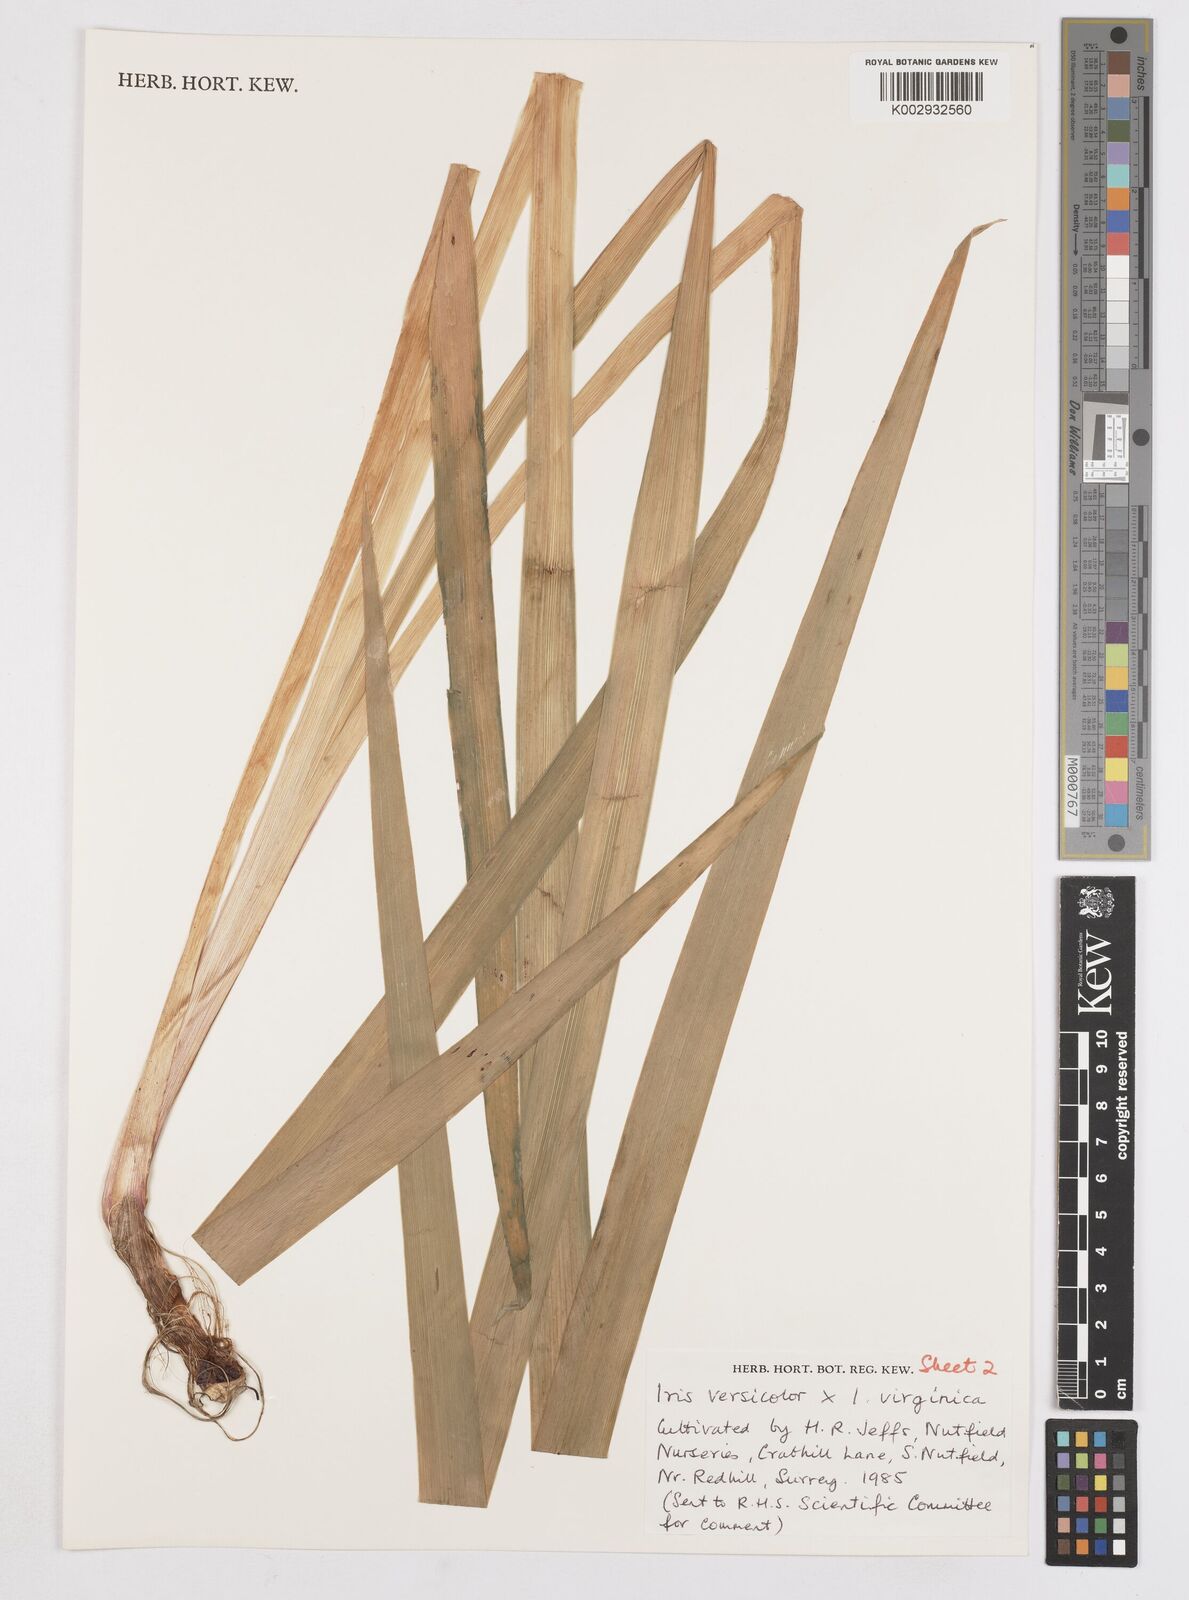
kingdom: Plantae
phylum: Tracheophyta
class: Liliopsida
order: Asparagales
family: Iridaceae
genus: Iris
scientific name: Iris versicolor
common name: Purple iris
